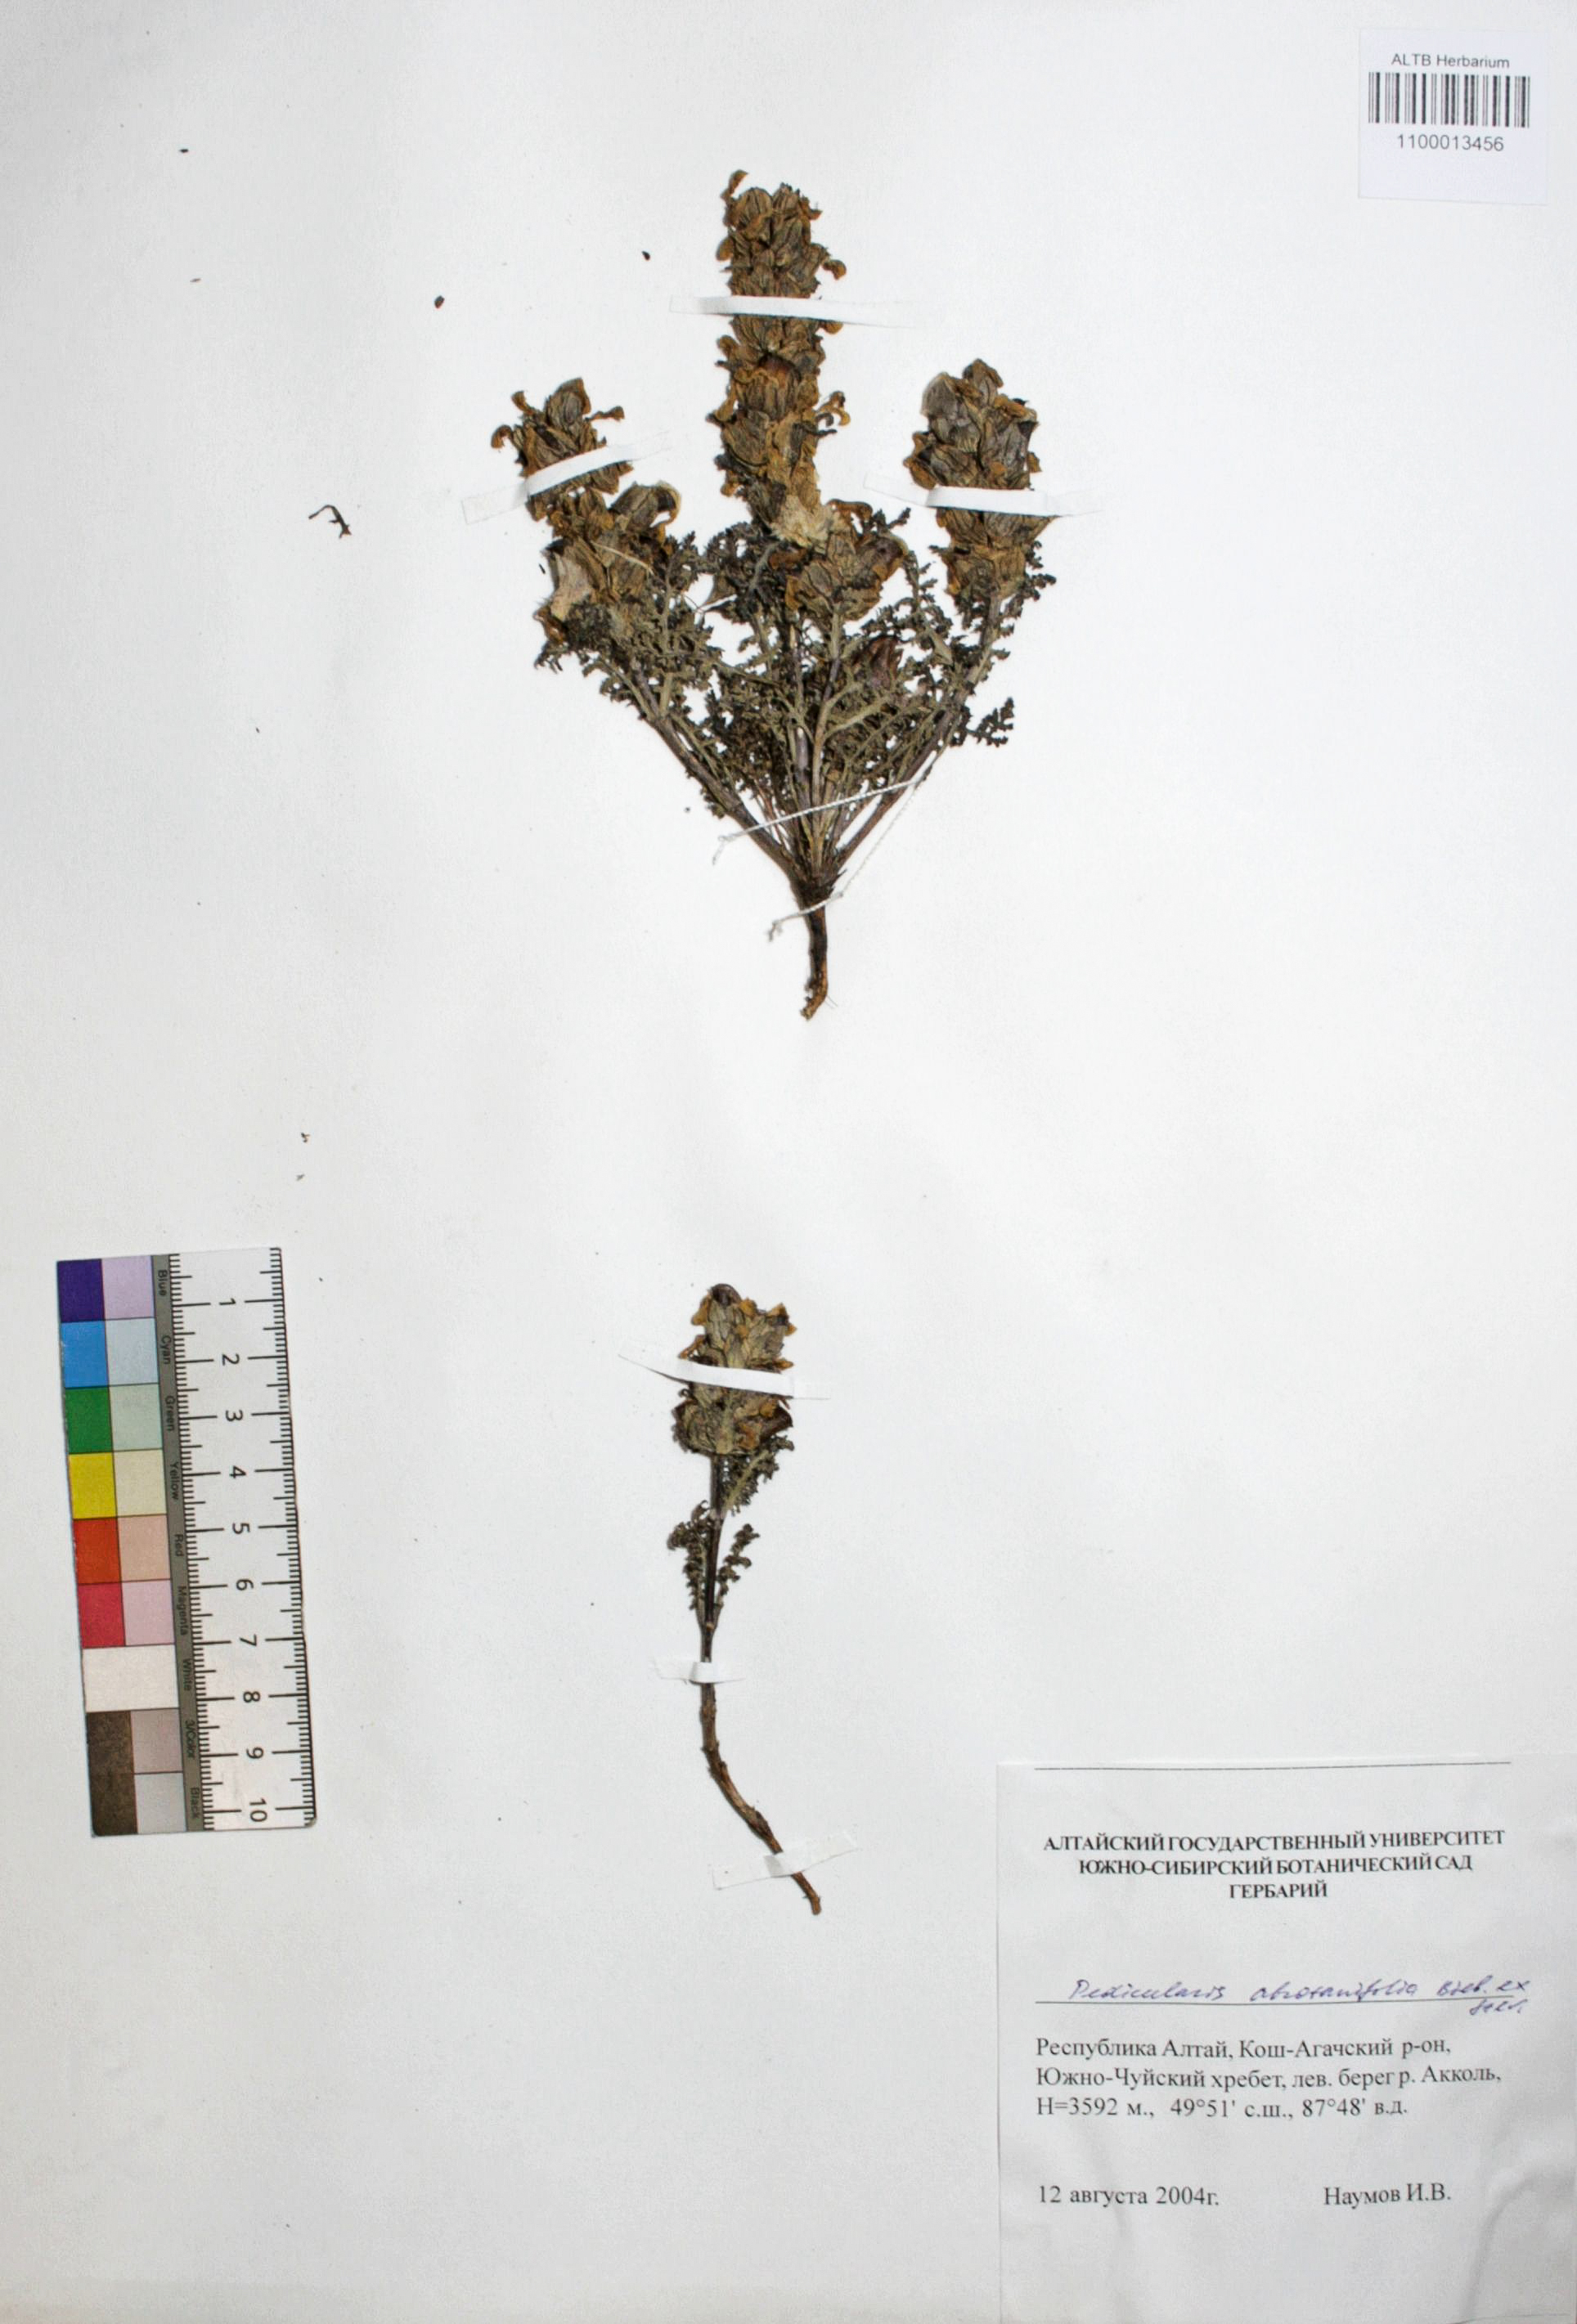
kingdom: Plantae
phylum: Tracheophyta
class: Magnoliopsida
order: Lamiales
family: Orobanchaceae
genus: Pedicularis
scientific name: Pedicularis abrotanifolia
